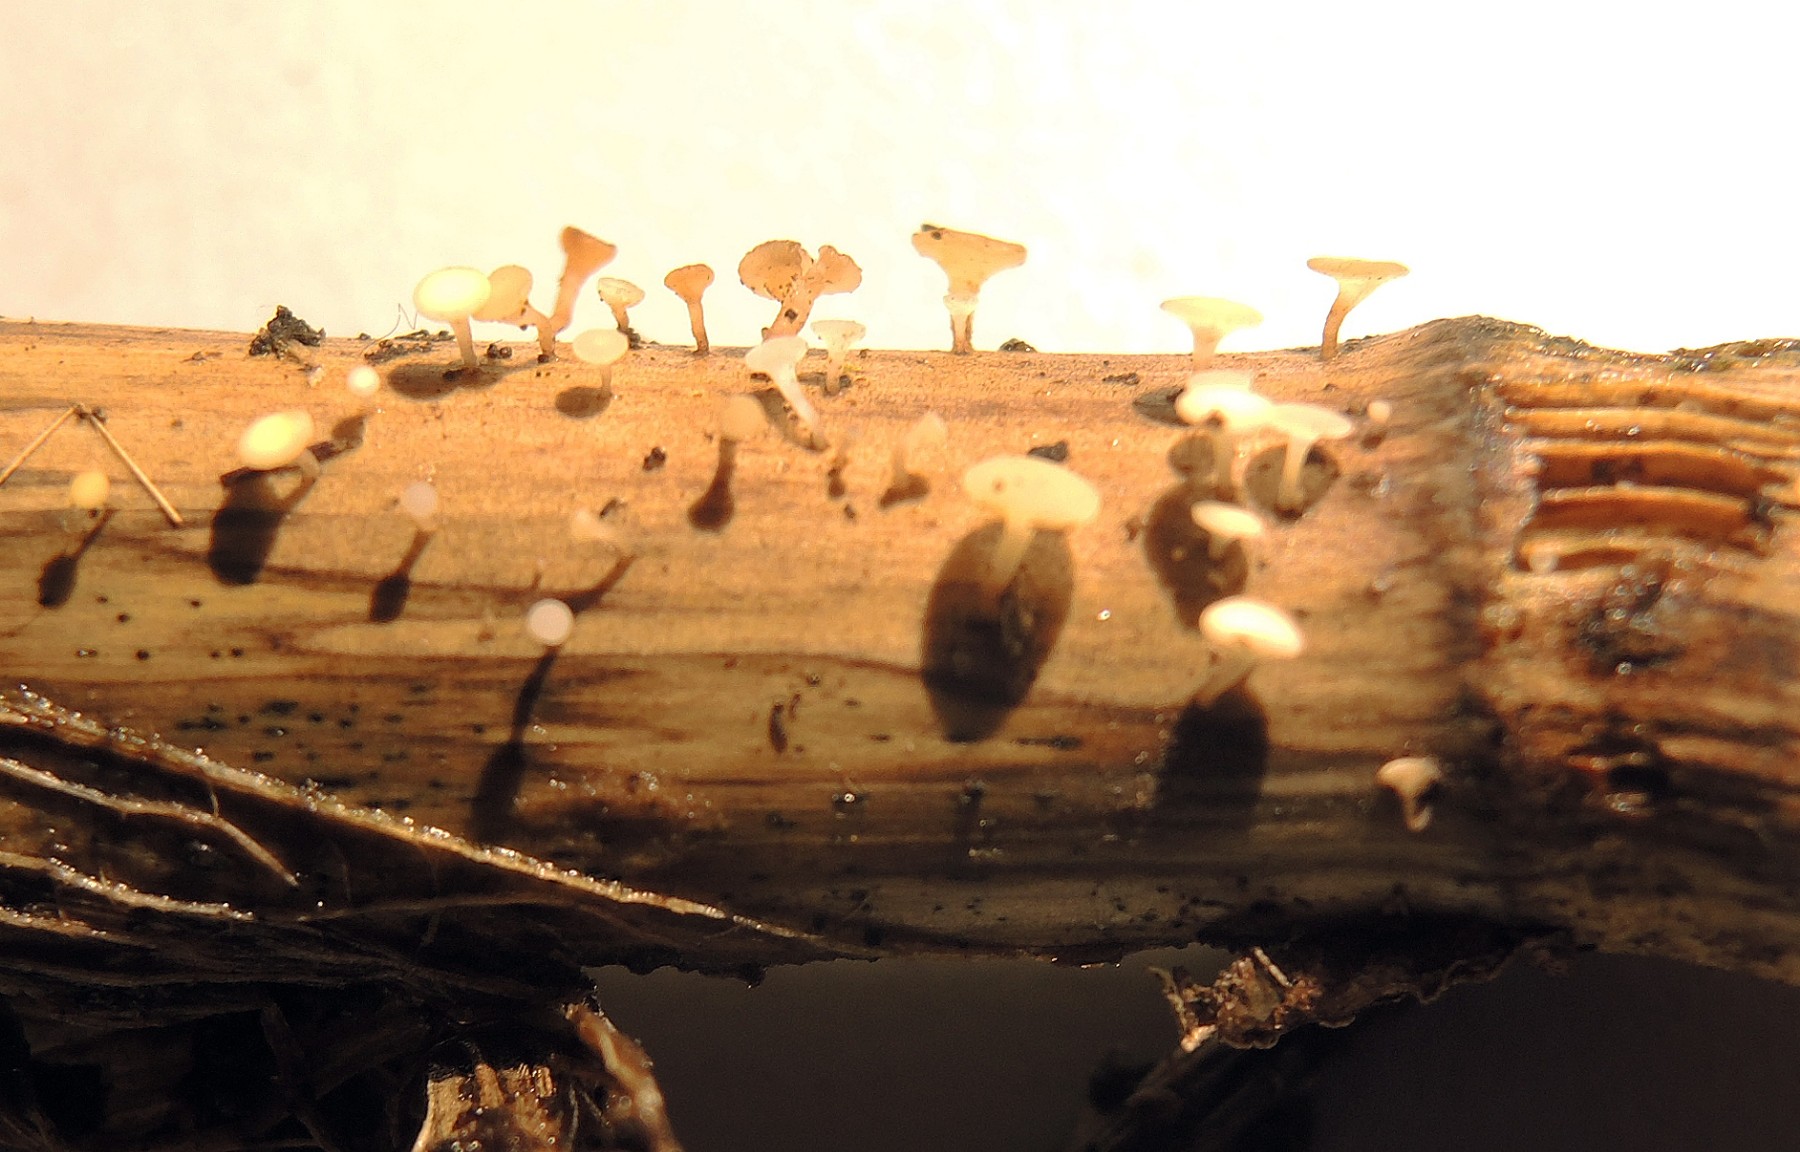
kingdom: Fungi
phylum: Ascomycota
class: Leotiomycetes
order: Helotiales
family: Helotiaceae
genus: Hymenoscyphus
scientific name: Hymenoscyphus scutula
